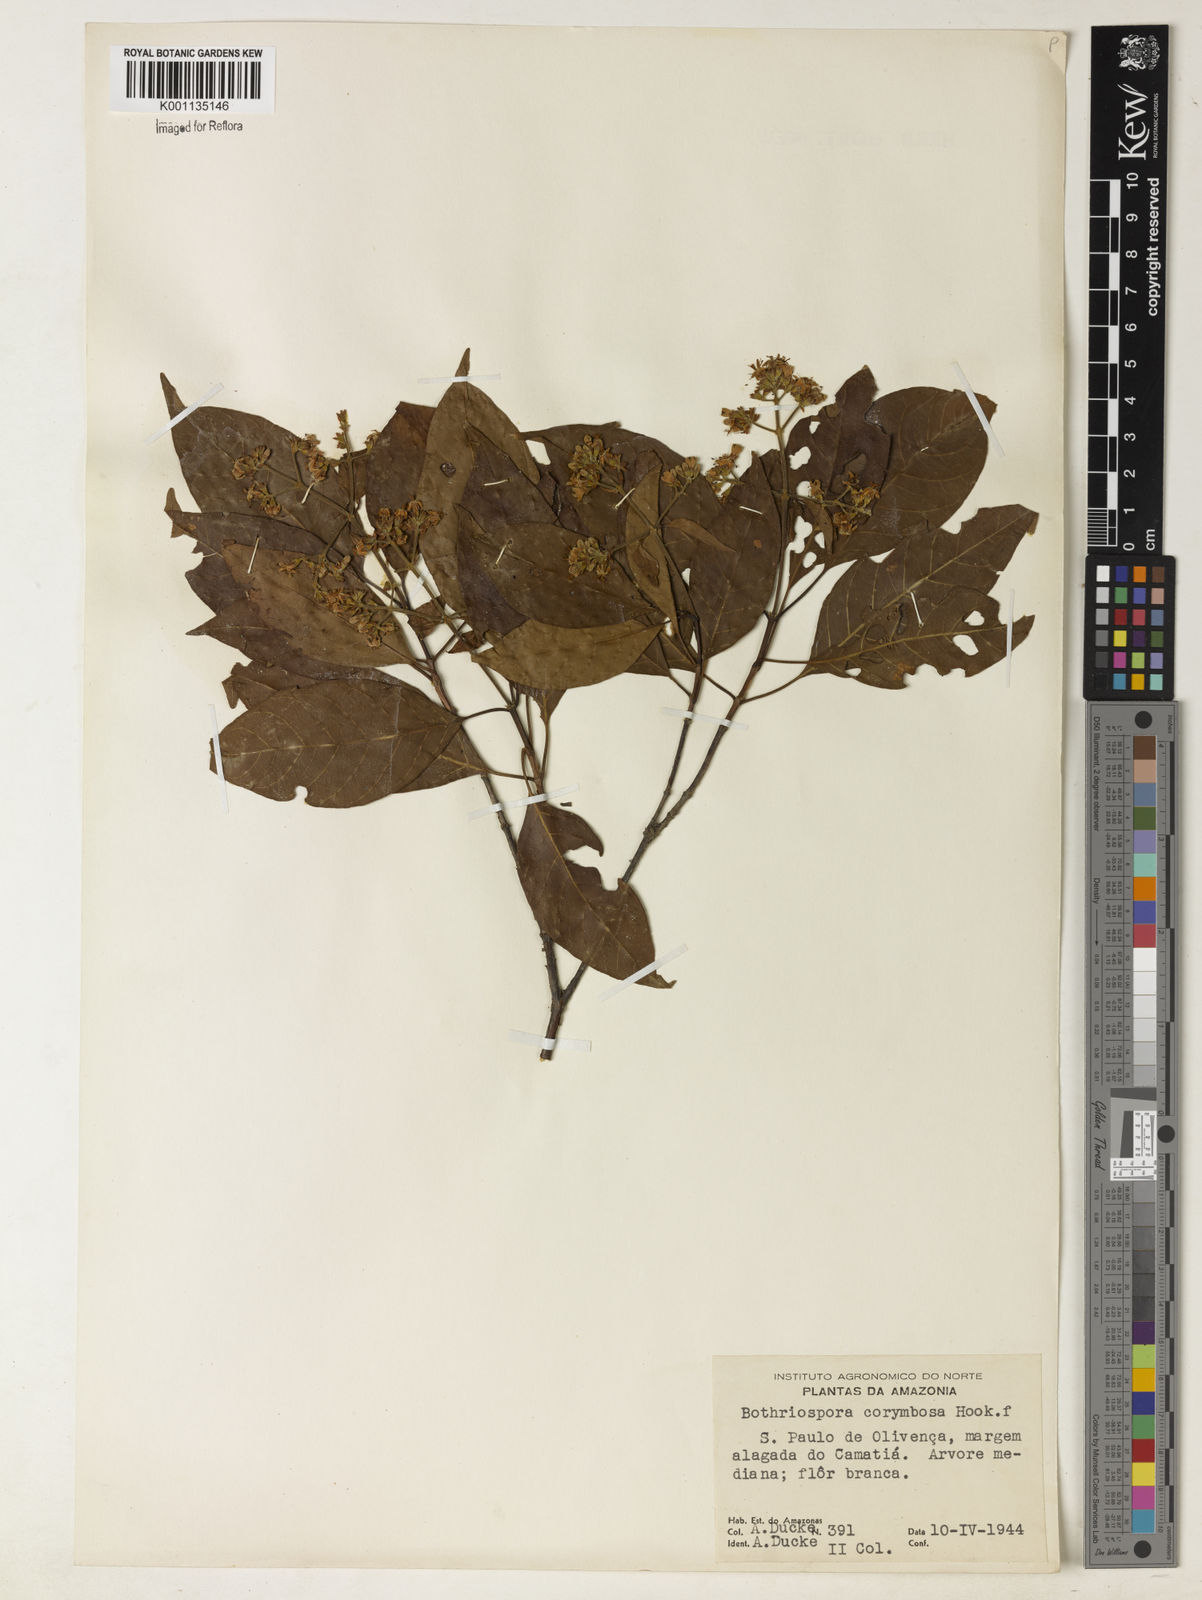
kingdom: Plantae
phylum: Tracheophyta
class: Magnoliopsida
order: Gentianales
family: Rubiaceae
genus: Bothriospora
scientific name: Bothriospora corymbosa
